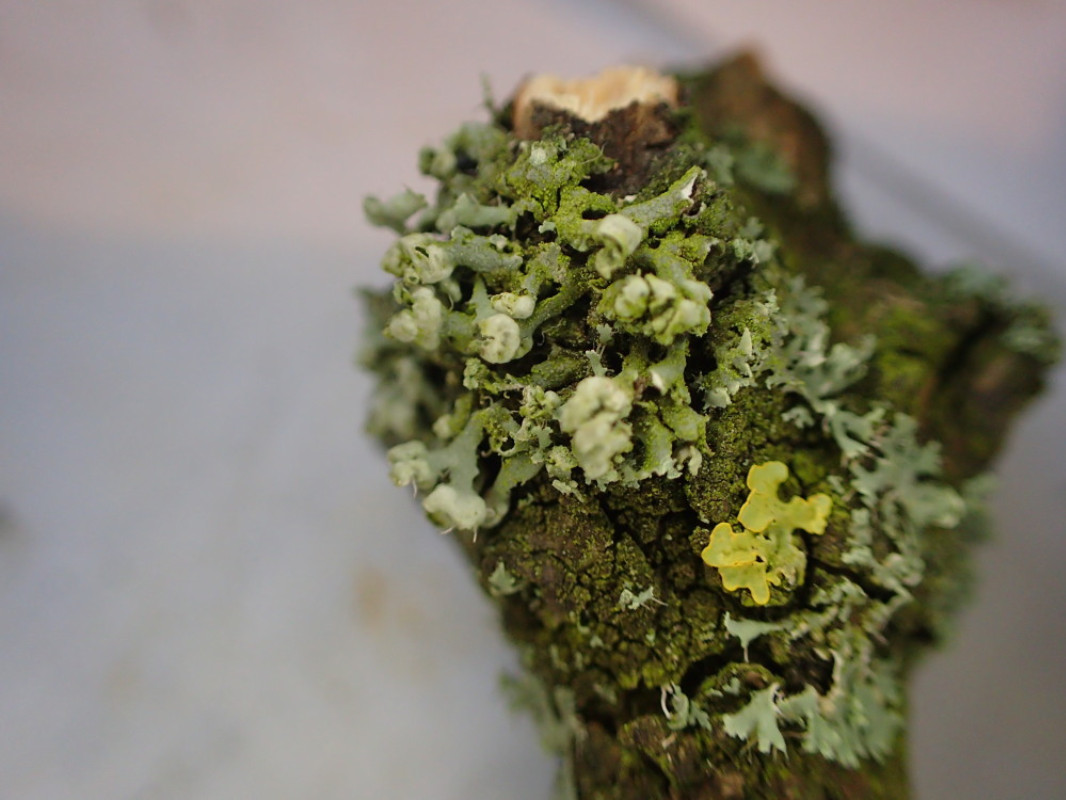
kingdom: Fungi
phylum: Ascomycota
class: Lecanoromycetes
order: Caliciales
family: Physciaceae
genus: Physcia
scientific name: Physcia adscendens
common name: hætte-rosetlav
